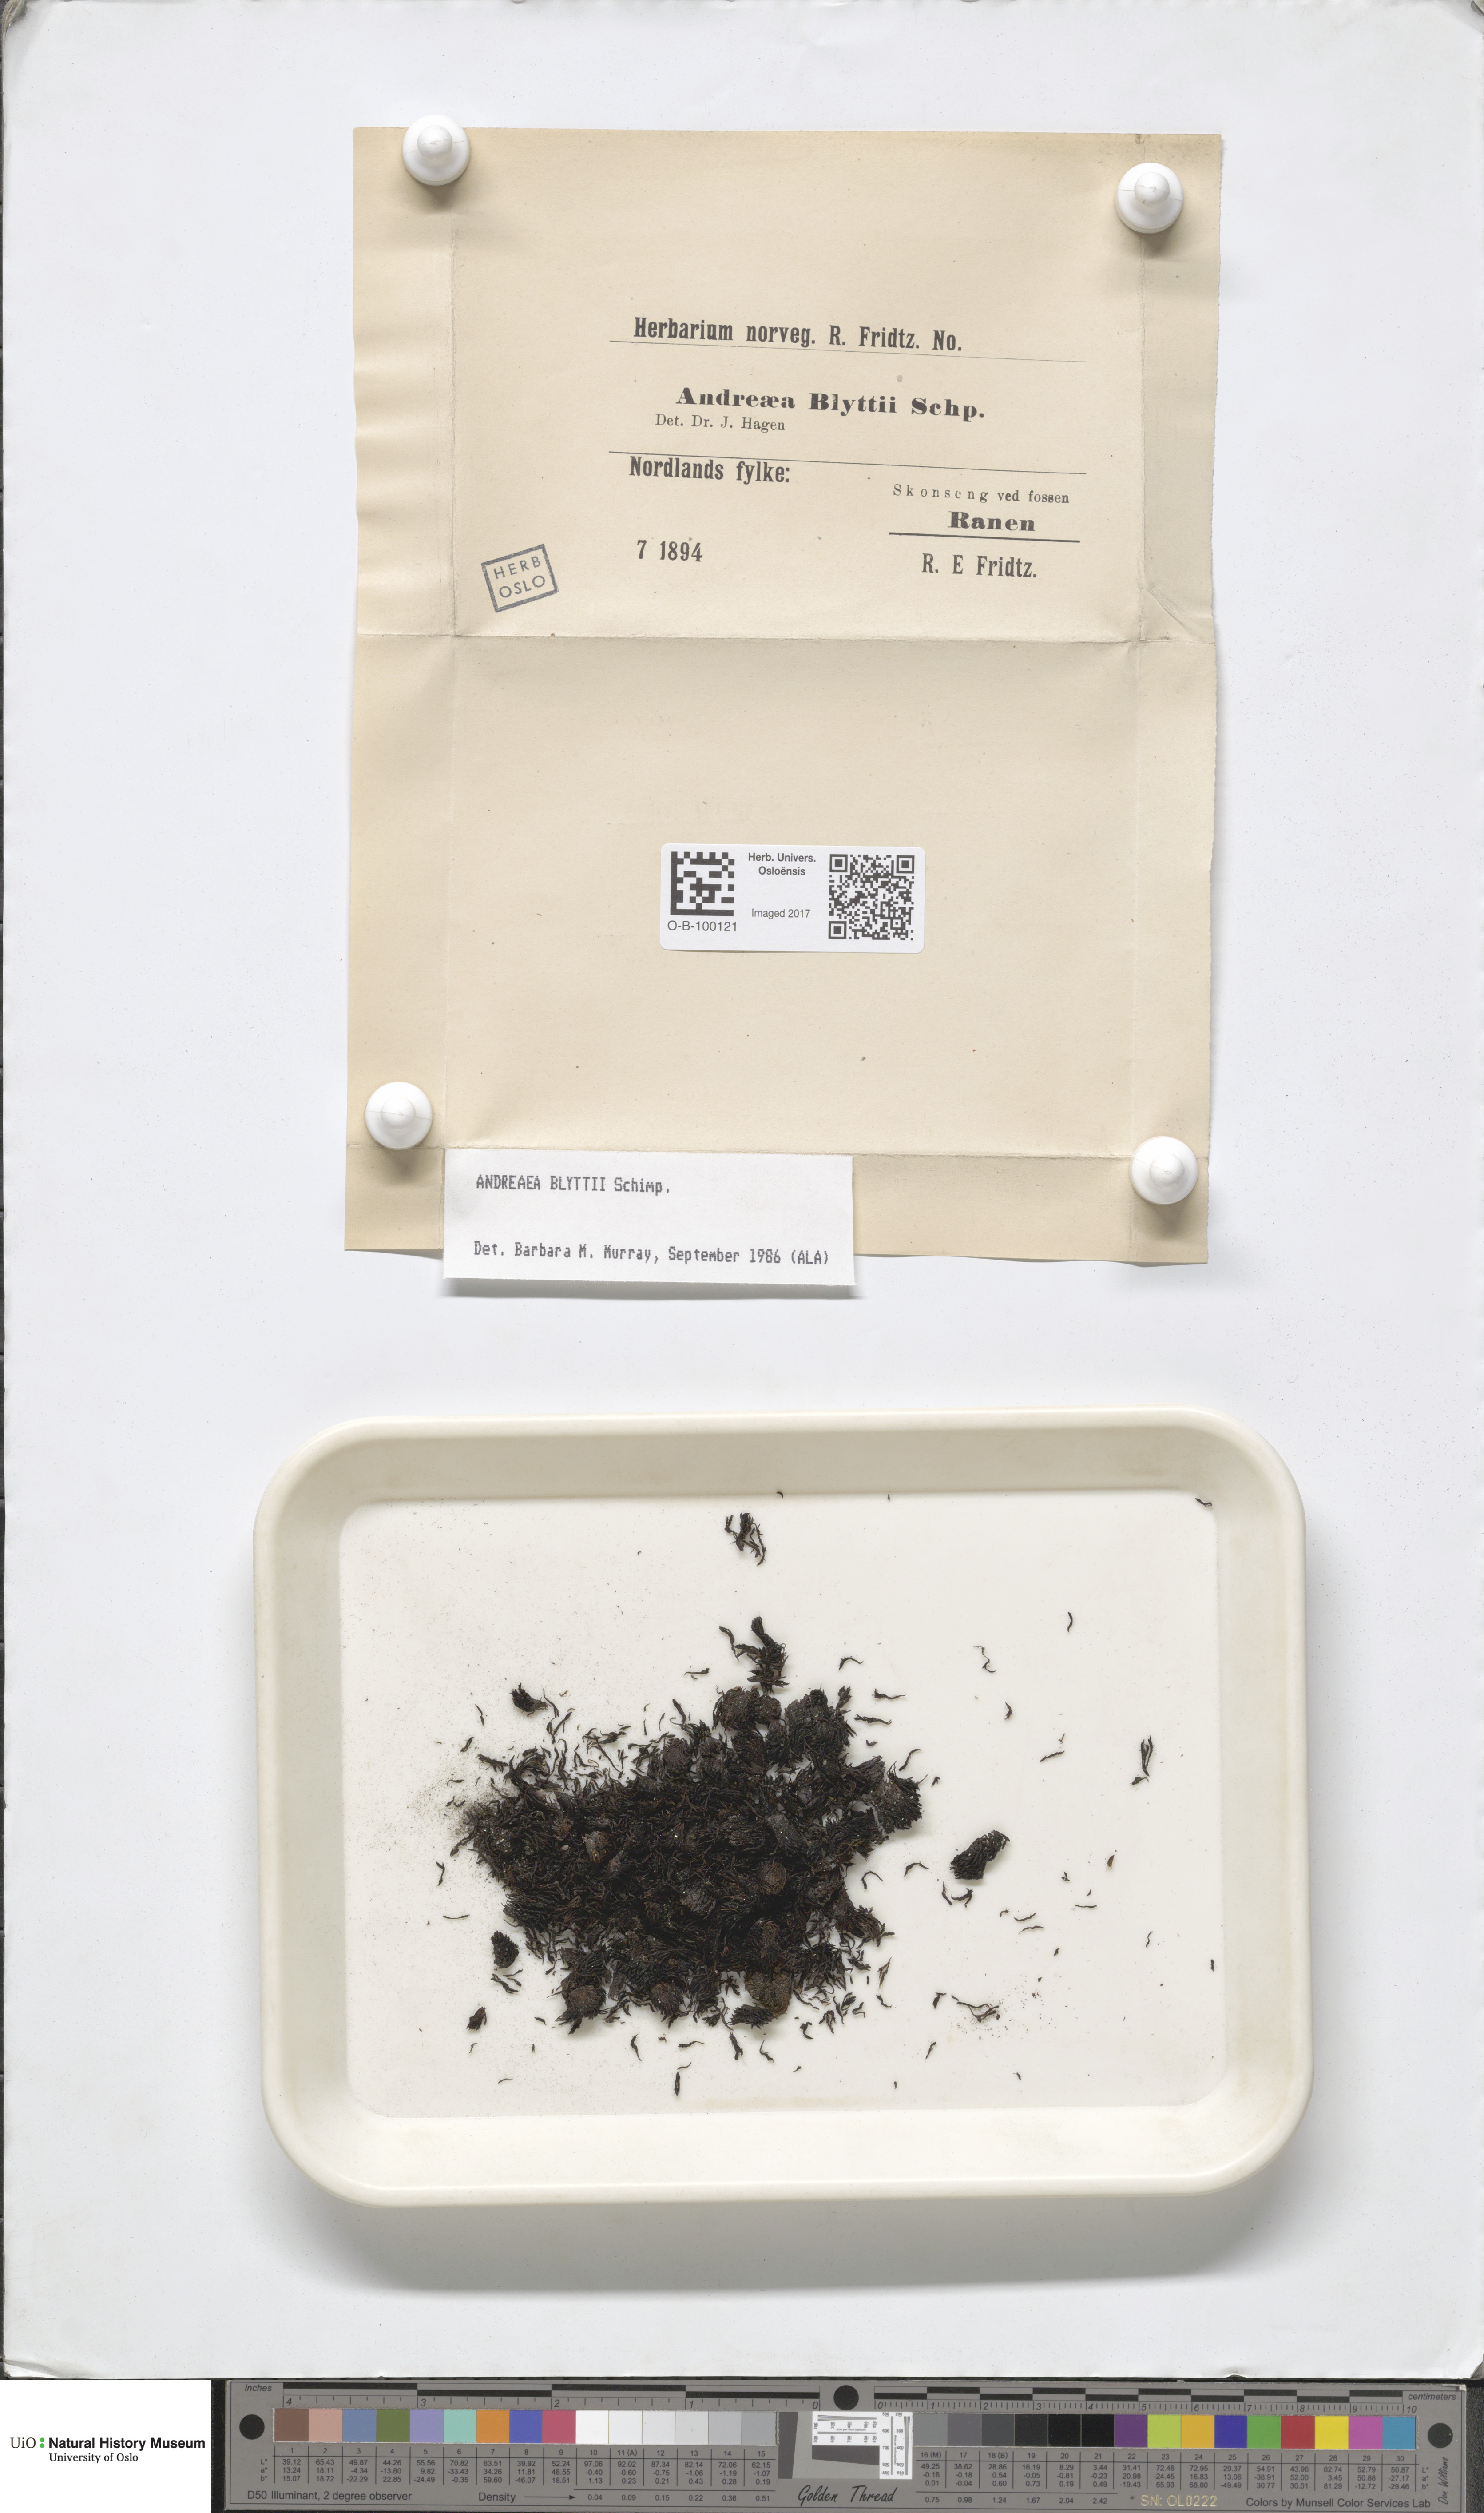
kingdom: Plantae
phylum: Bryophyta
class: Andreaeopsida
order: Andreaeales
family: Andreaeaceae
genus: Andreaea
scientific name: Andreaea blyttii
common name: Blytt's rock moss
